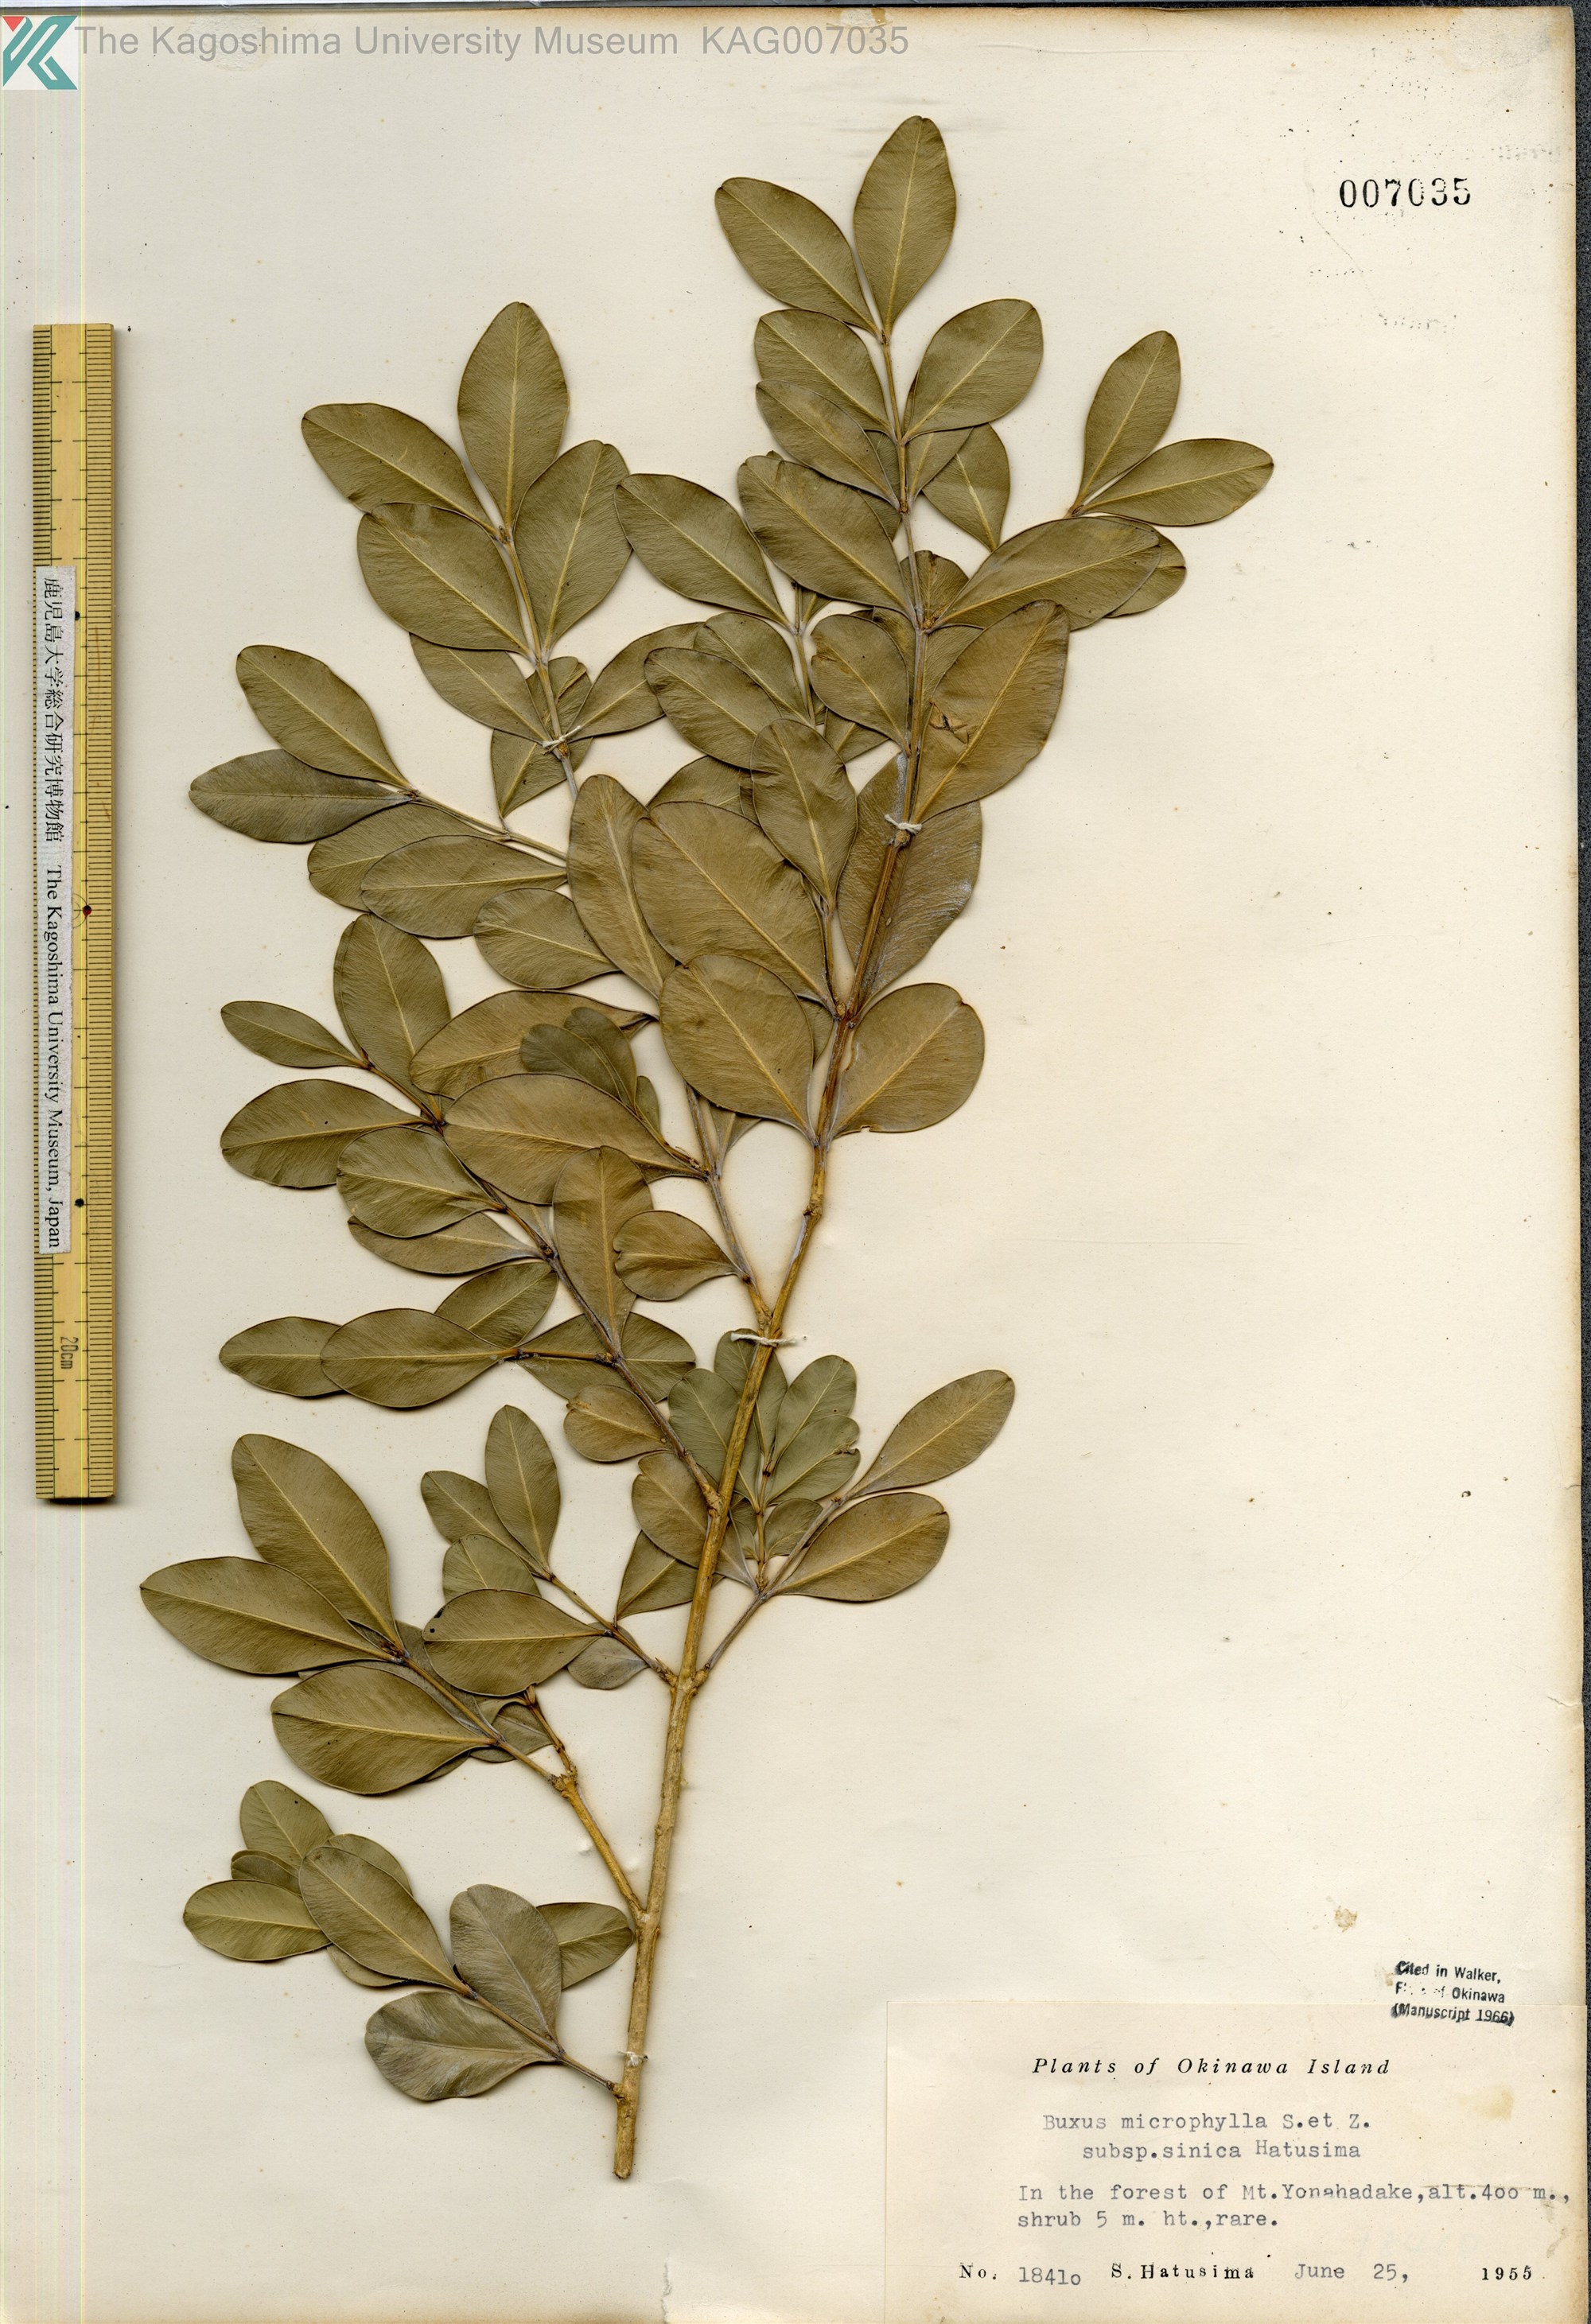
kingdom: Plantae
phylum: Tracheophyta
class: Magnoliopsida
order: Buxales
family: Buxaceae
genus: Buxus
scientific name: Buxus sinica
